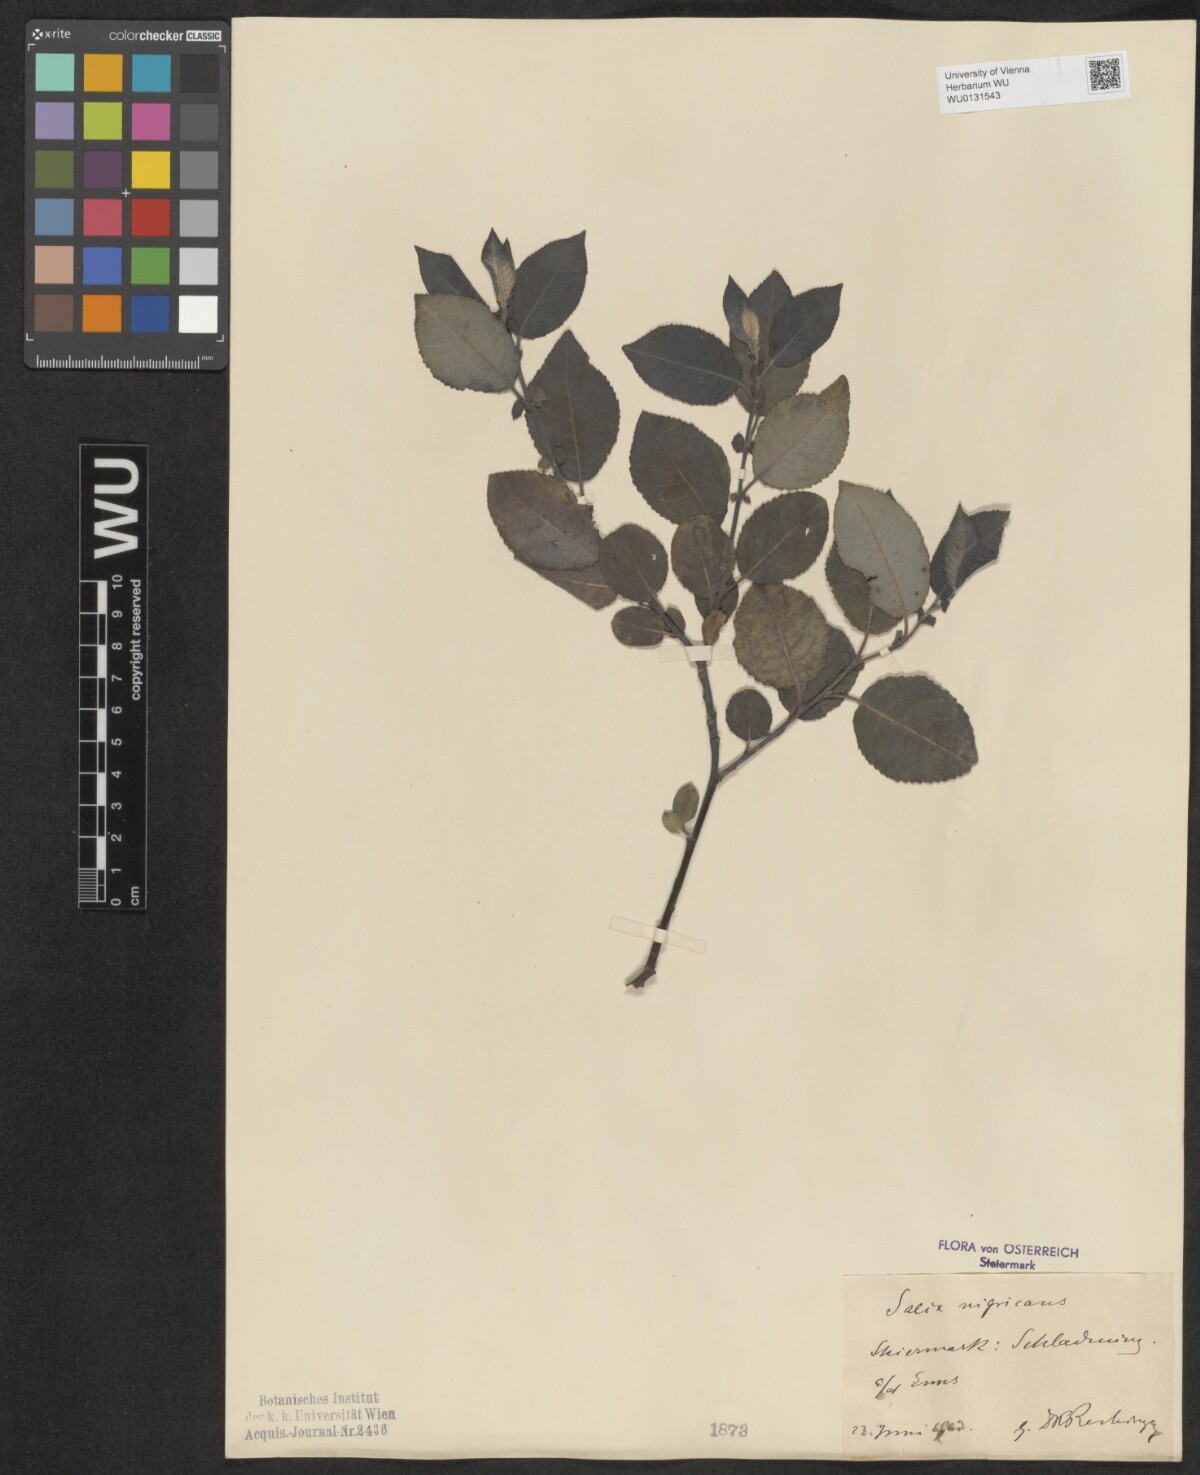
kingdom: Plantae
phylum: Tracheophyta
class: Magnoliopsida
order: Malpighiales
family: Salicaceae
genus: Salix
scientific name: Salix myrsinifolia
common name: Dark-leaved willow
